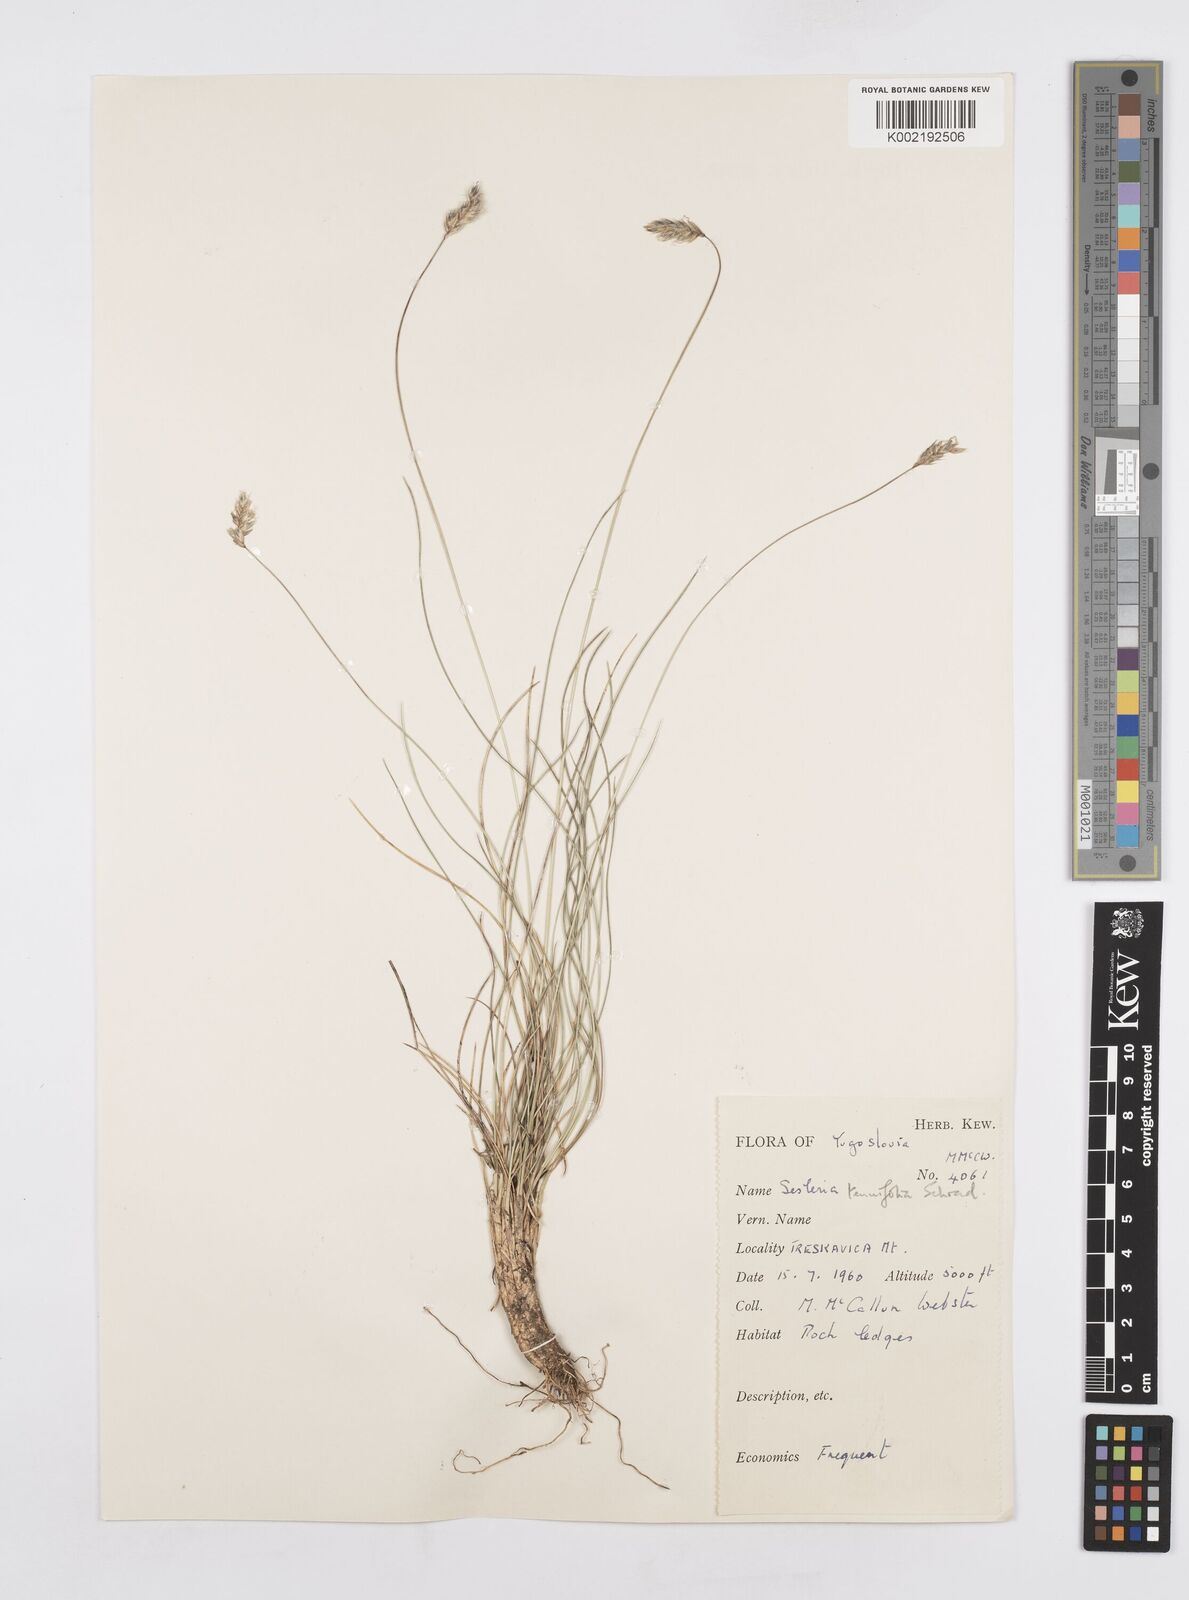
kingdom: Plantae
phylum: Tracheophyta
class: Liliopsida
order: Poales
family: Poaceae
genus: Sesleria
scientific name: Sesleria juncifolia
